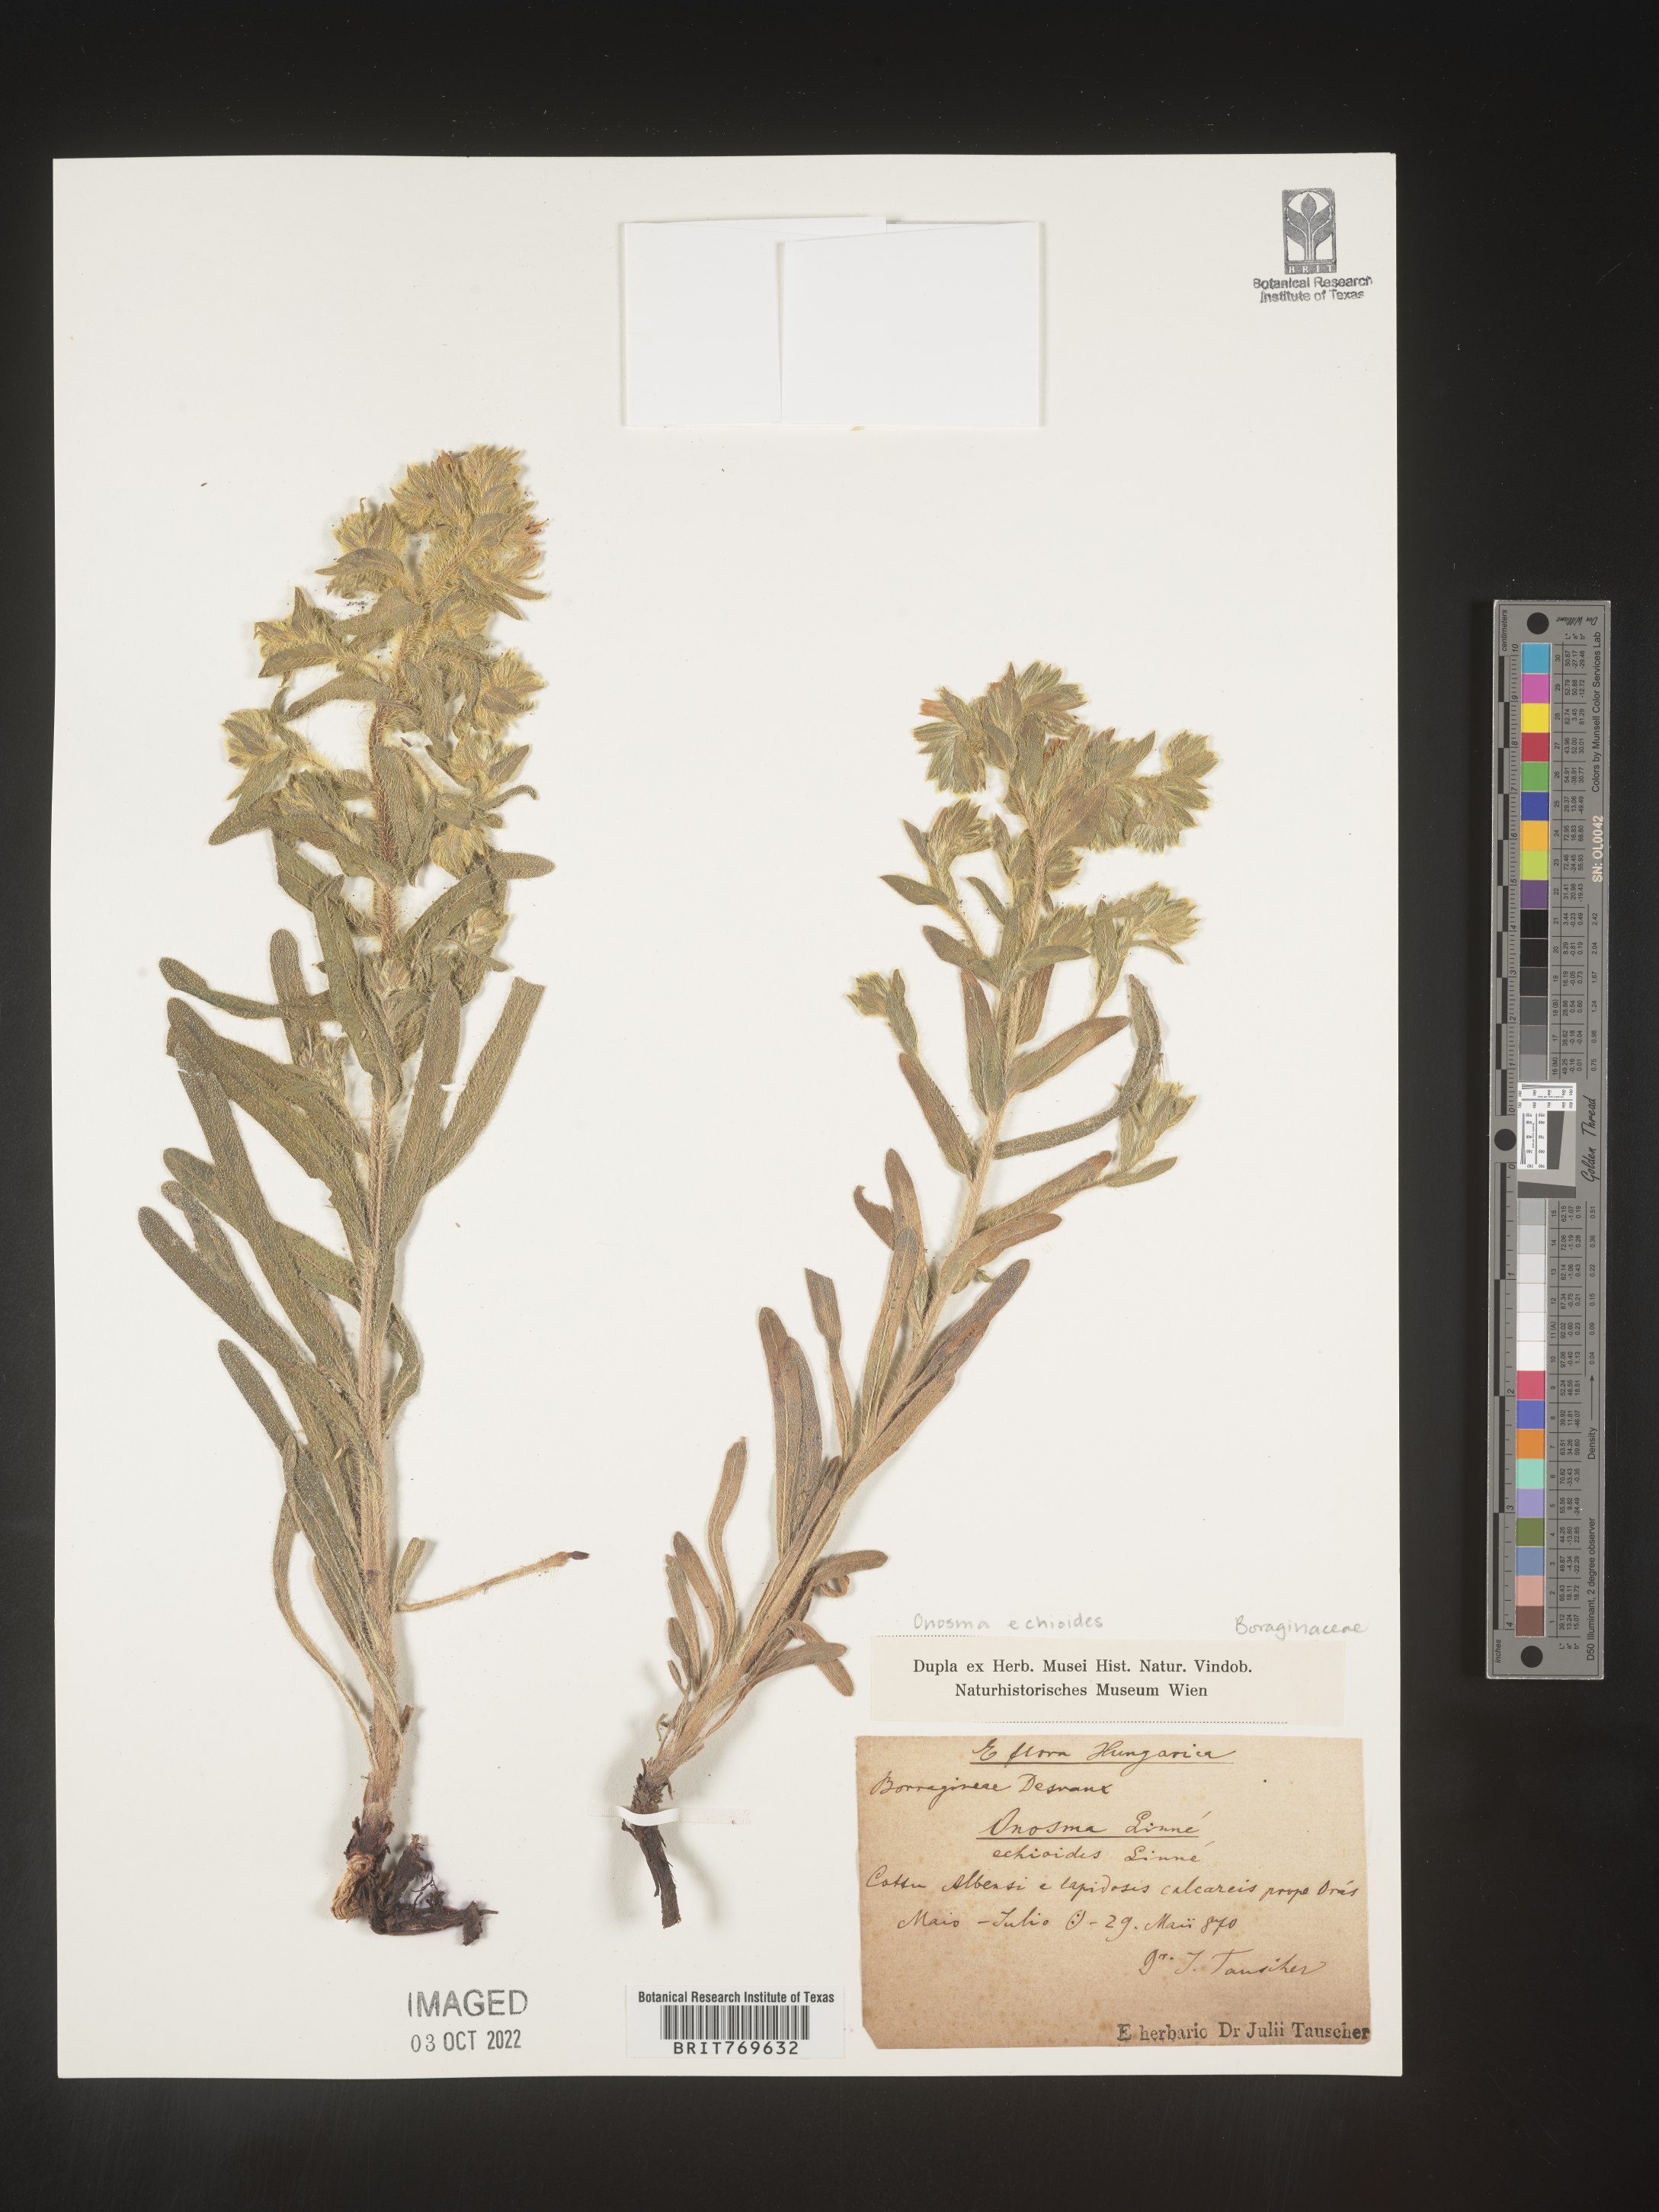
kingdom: Plantae
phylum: Tracheophyta
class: Magnoliopsida
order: Boraginales
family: Boraginaceae
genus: Onosma
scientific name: Onosma
